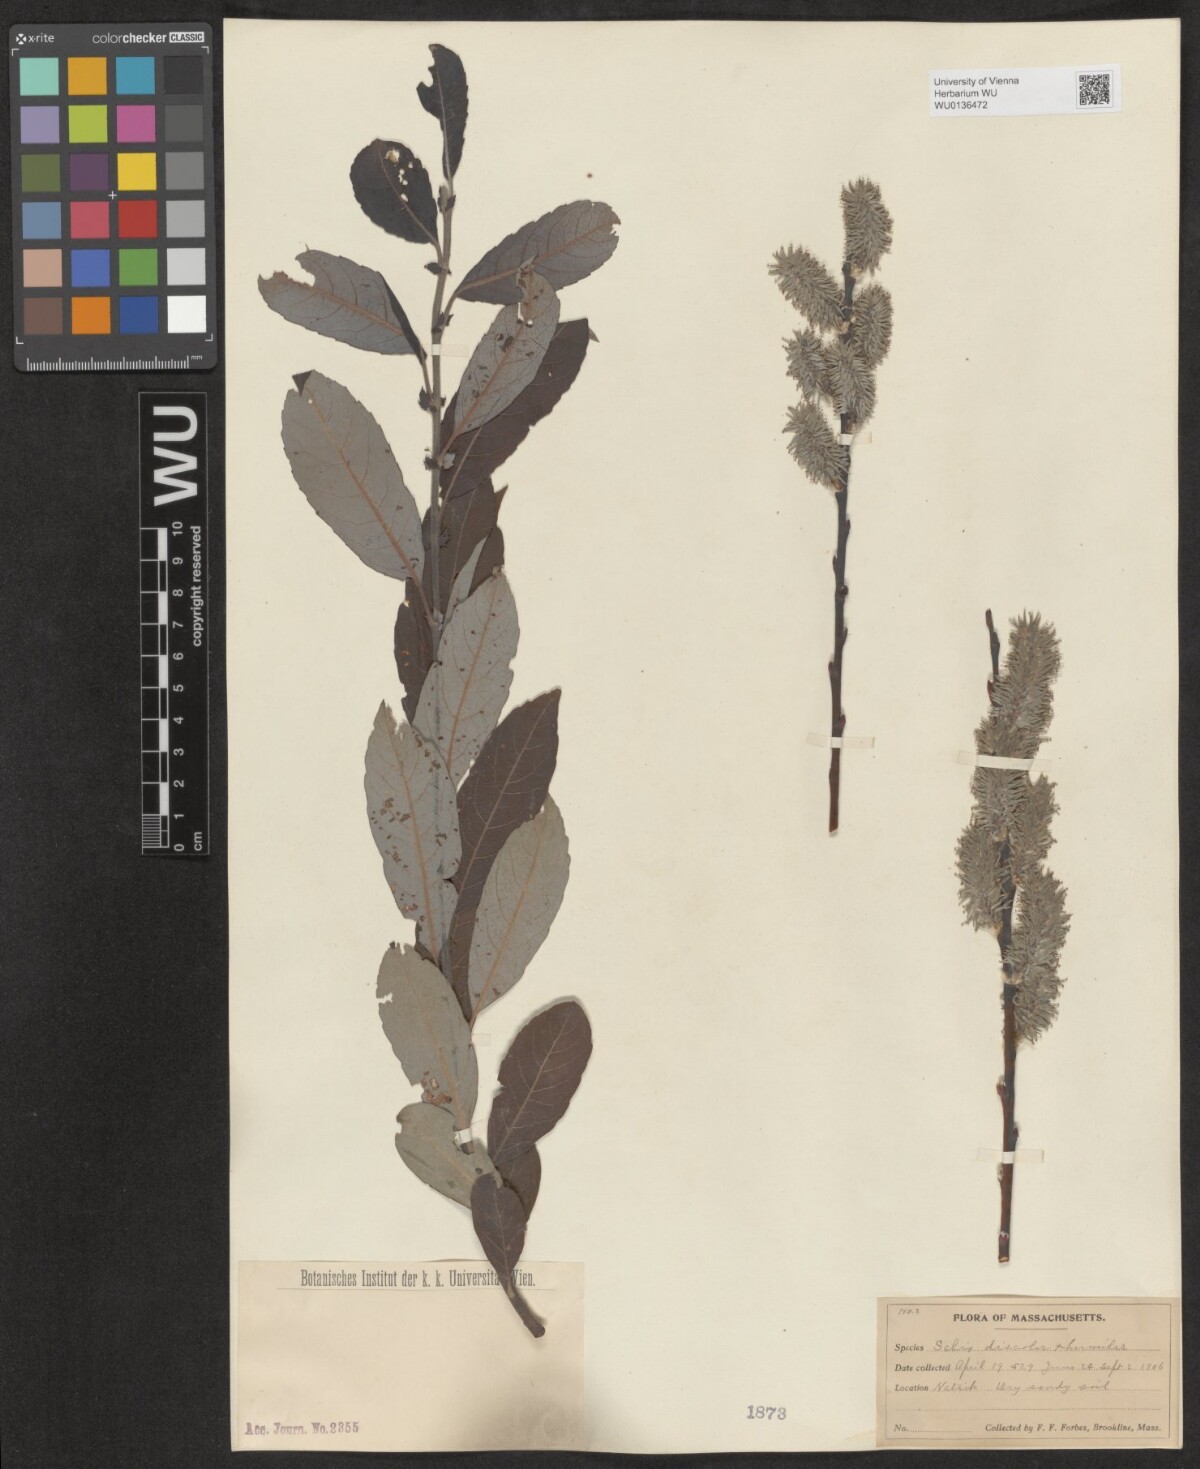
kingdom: Plantae
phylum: Tracheophyta
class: Magnoliopsida
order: Malpighiales
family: Salicaceae
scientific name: Salicaceae
